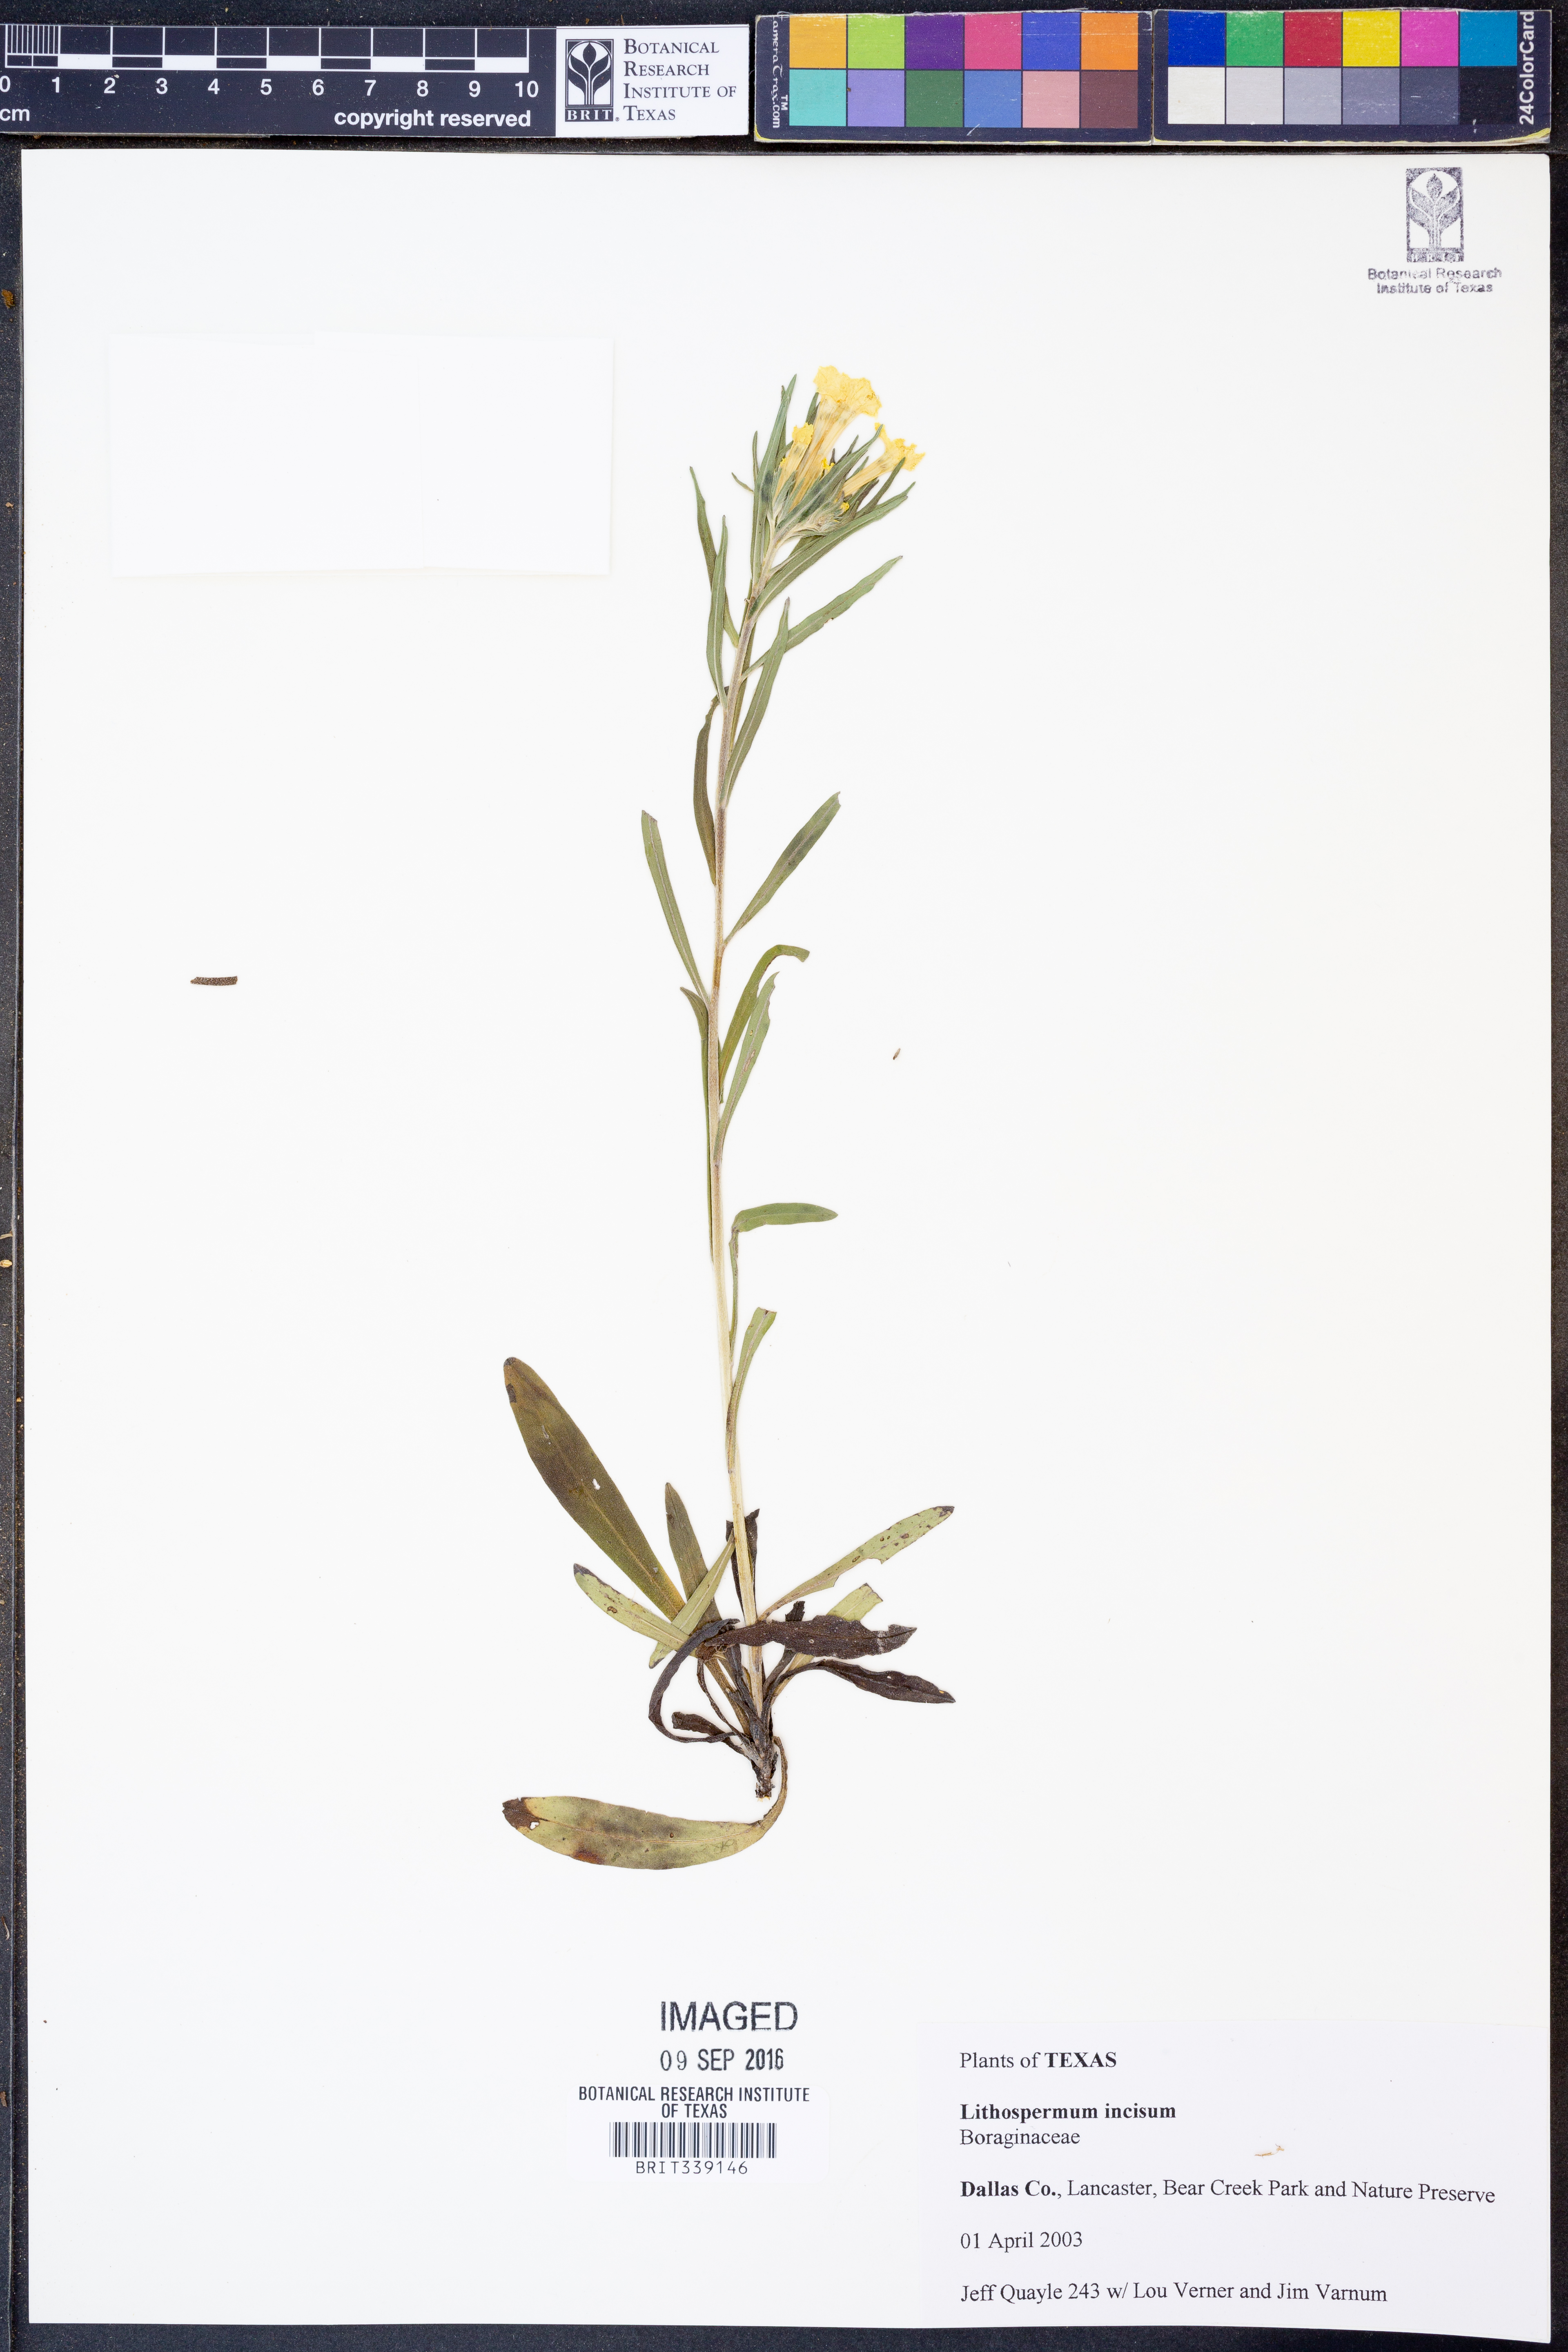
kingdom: Plantae
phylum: Tracheophyta
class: Magnoliopsida
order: Boraginales
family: Boraginaceae
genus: Lithospermum
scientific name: Lithospermum incisum
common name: Fringed gromwell
